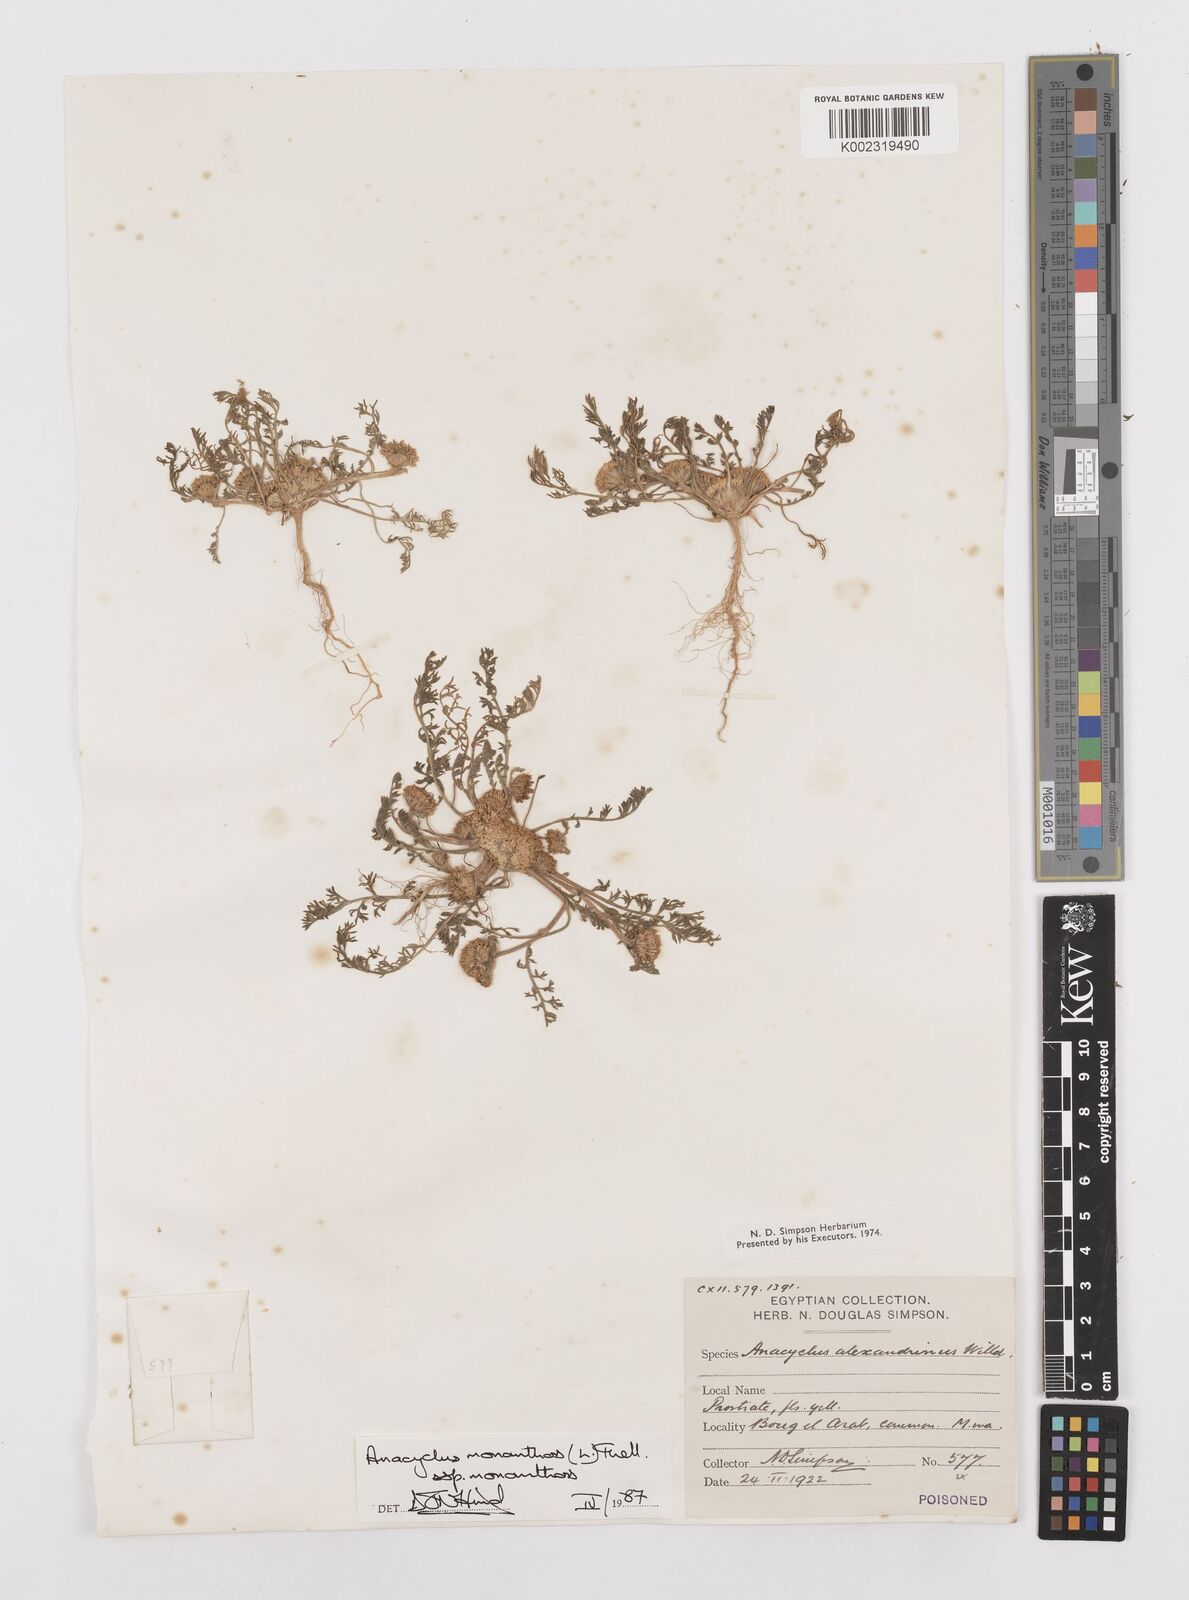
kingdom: Plantae
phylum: Tracheophyta
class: Magnoliopsida
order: Asterales
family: Asteraceae
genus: Anacyclus
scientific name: Anacyclus monanthos
